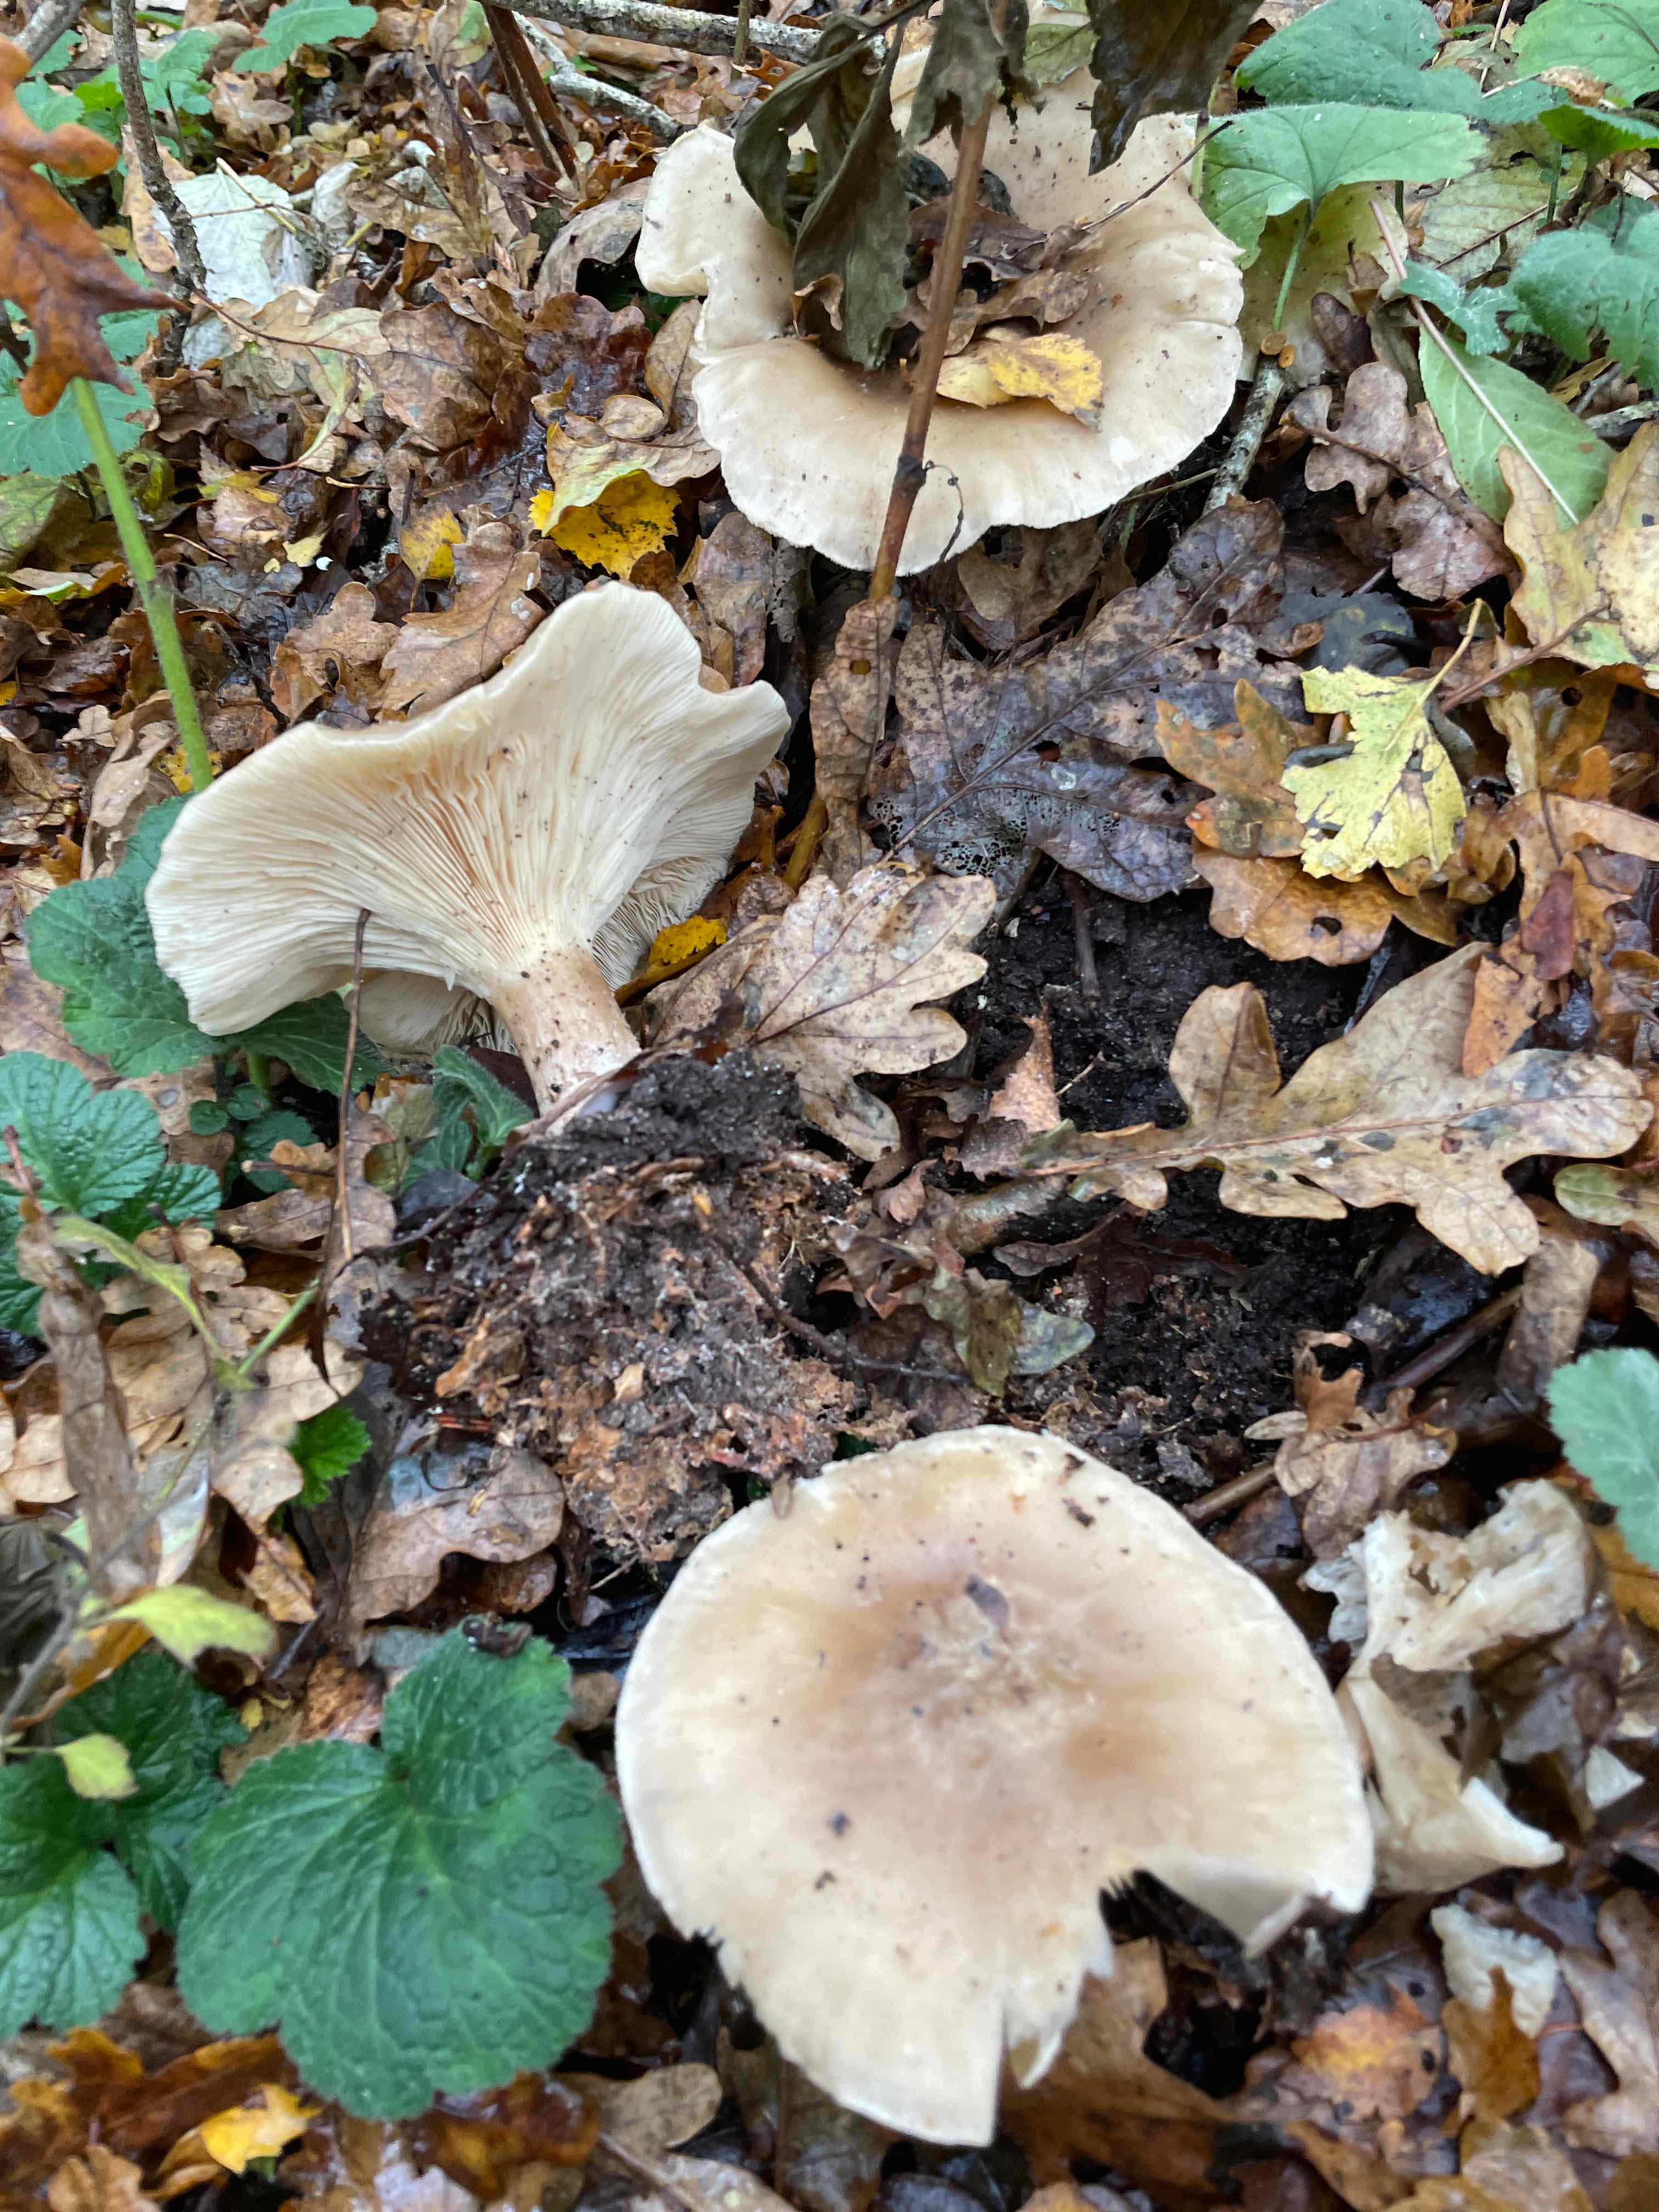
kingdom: Fungi
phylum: Basidiomycota
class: Agaricomycetes
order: Agaricales
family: Tricholomataceae
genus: Clitocybe
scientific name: Clitocybe nebularis
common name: tåge-tragthat
